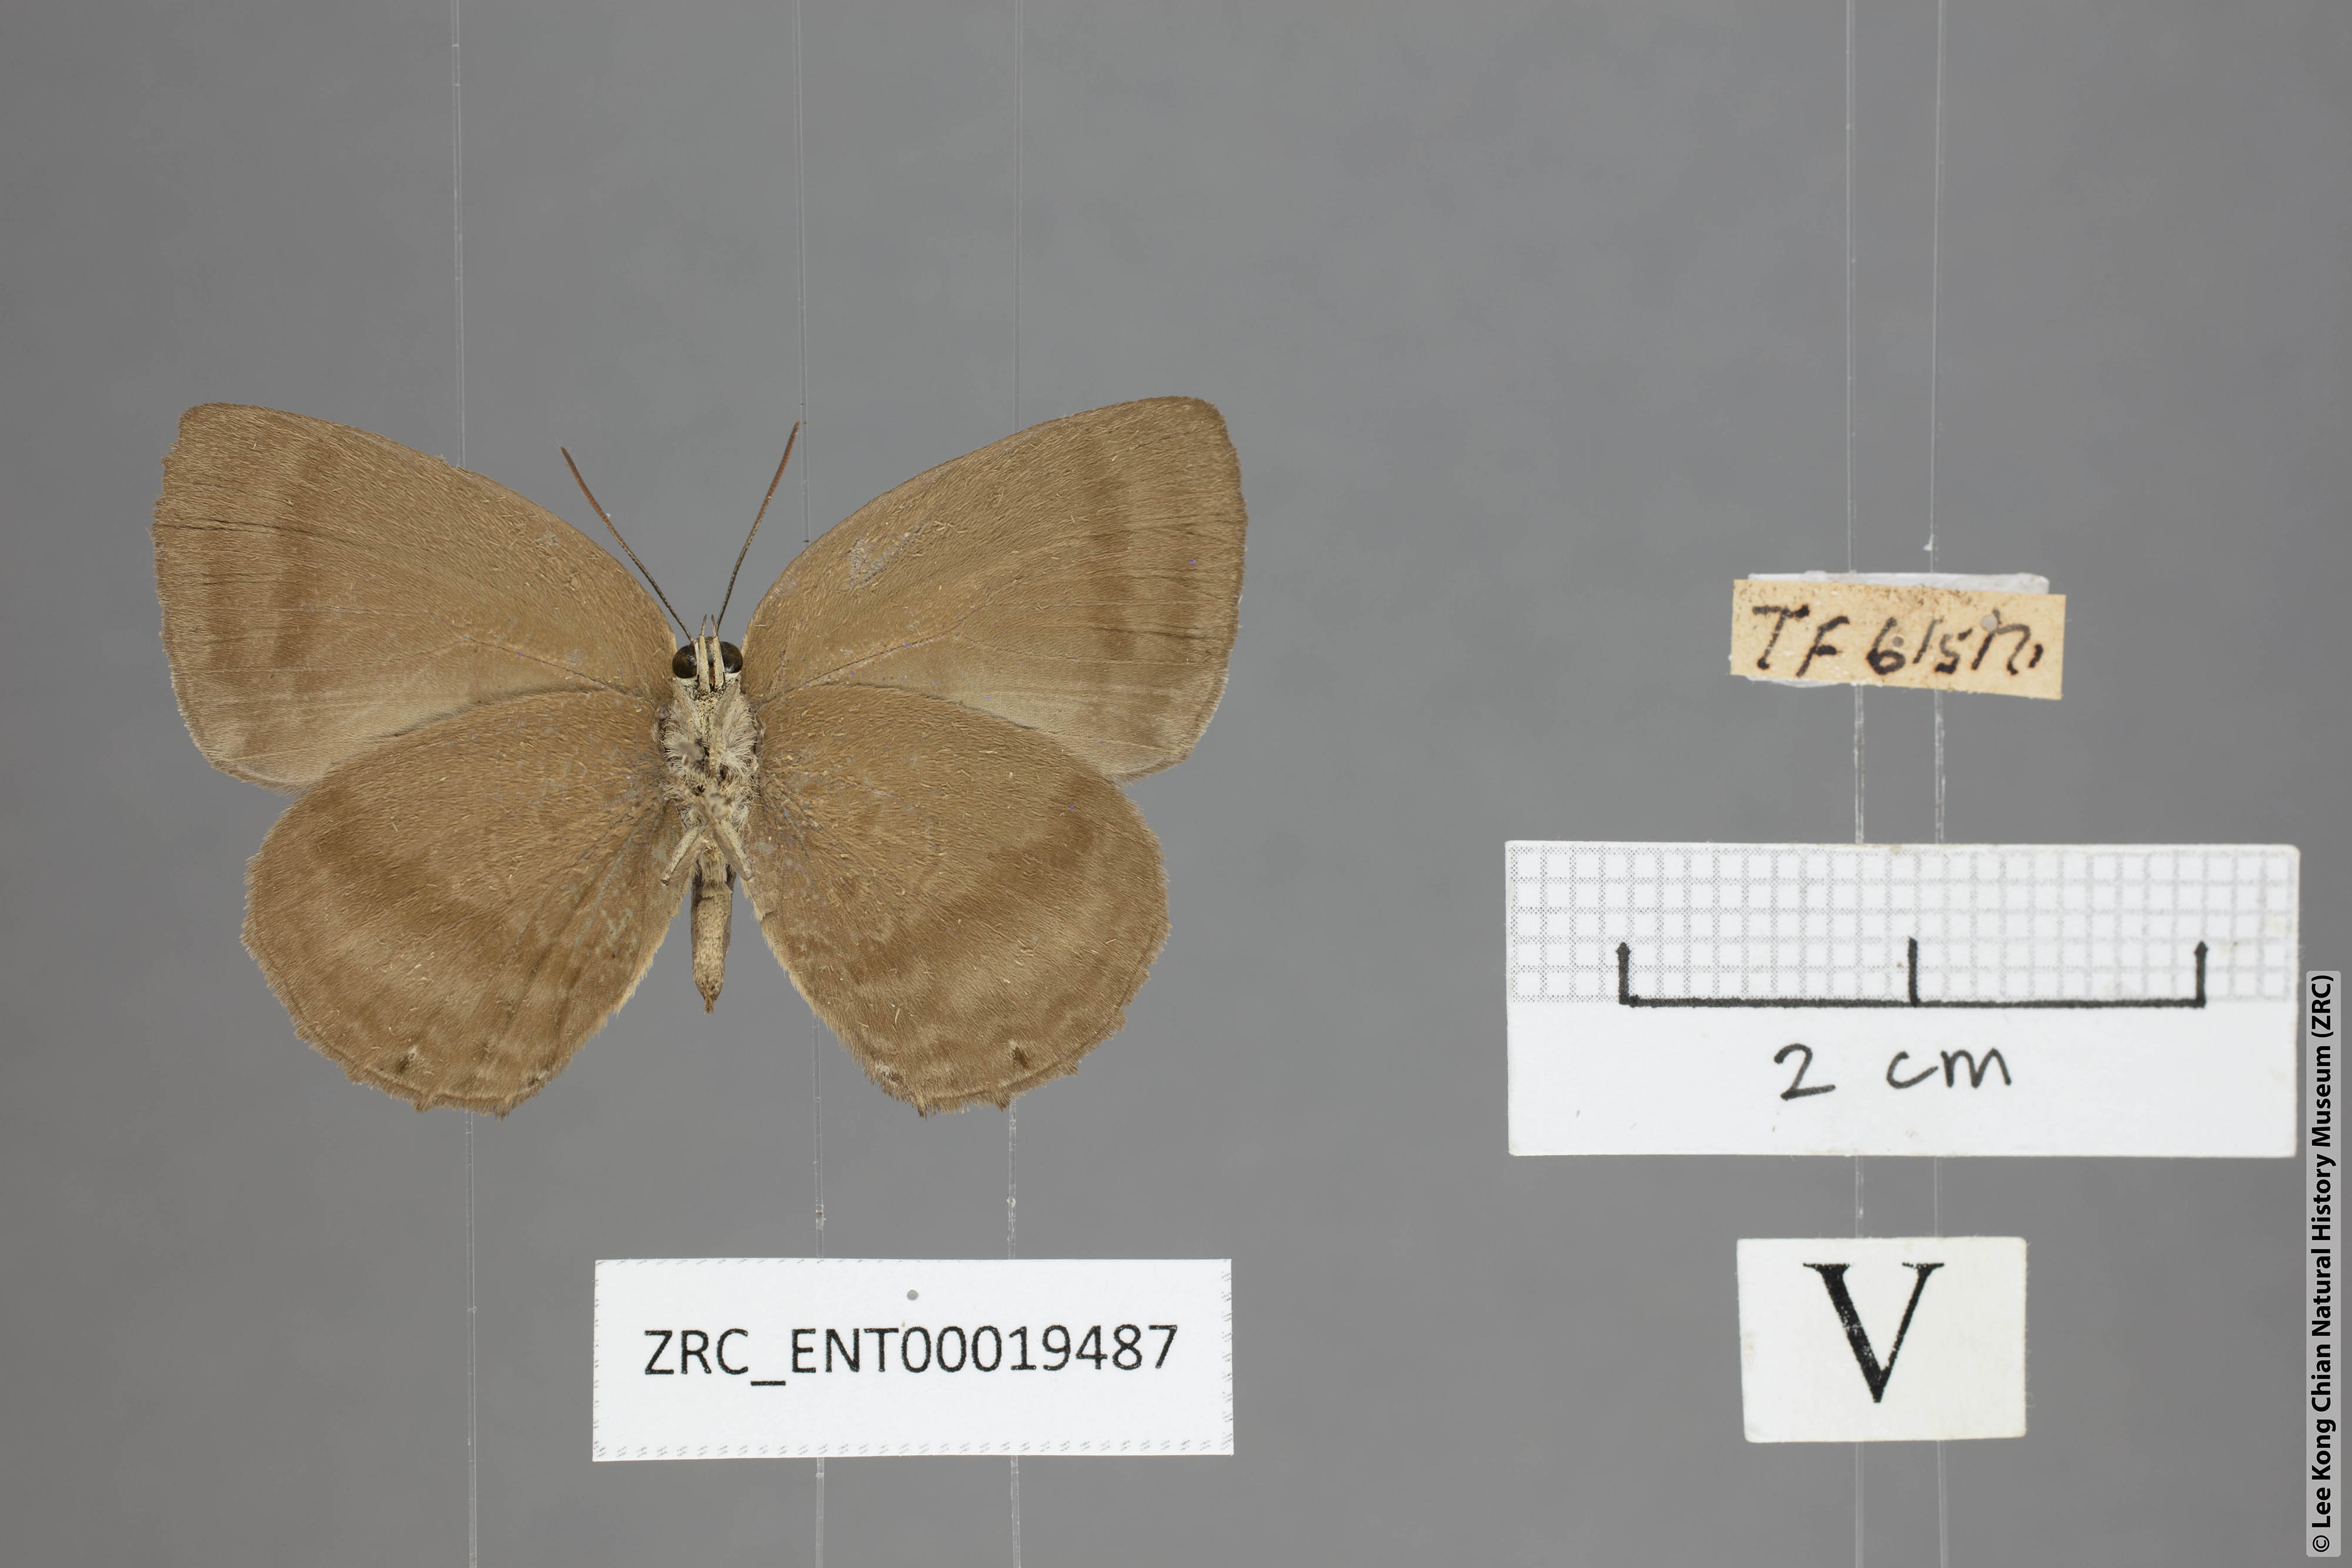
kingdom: Animalia
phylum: Arthropoda
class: Insecta
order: Lepidoptera
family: Lycaenidae
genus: Arhopala
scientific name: Arhopala fulla
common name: Spotless oakblue
